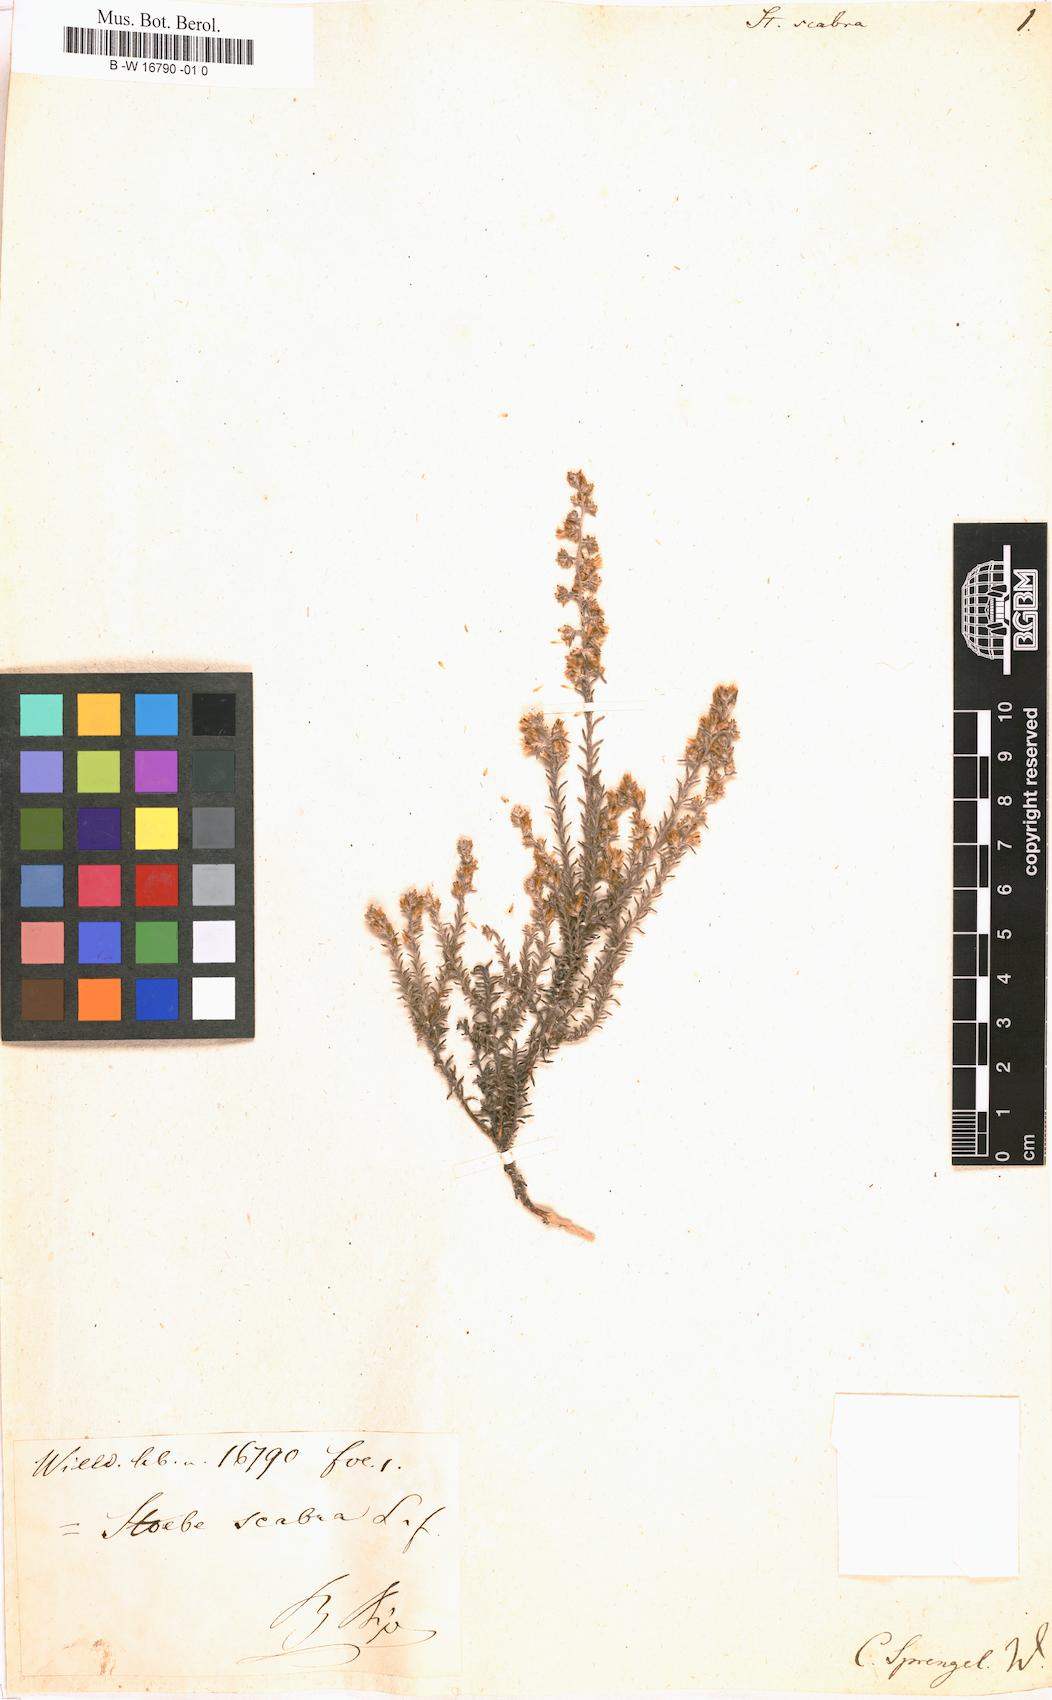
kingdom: Plantae
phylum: Tracheophyta
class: Magnoliopsida
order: Asterales
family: Asteraceae
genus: Myrovernix
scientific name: Myrovernix
